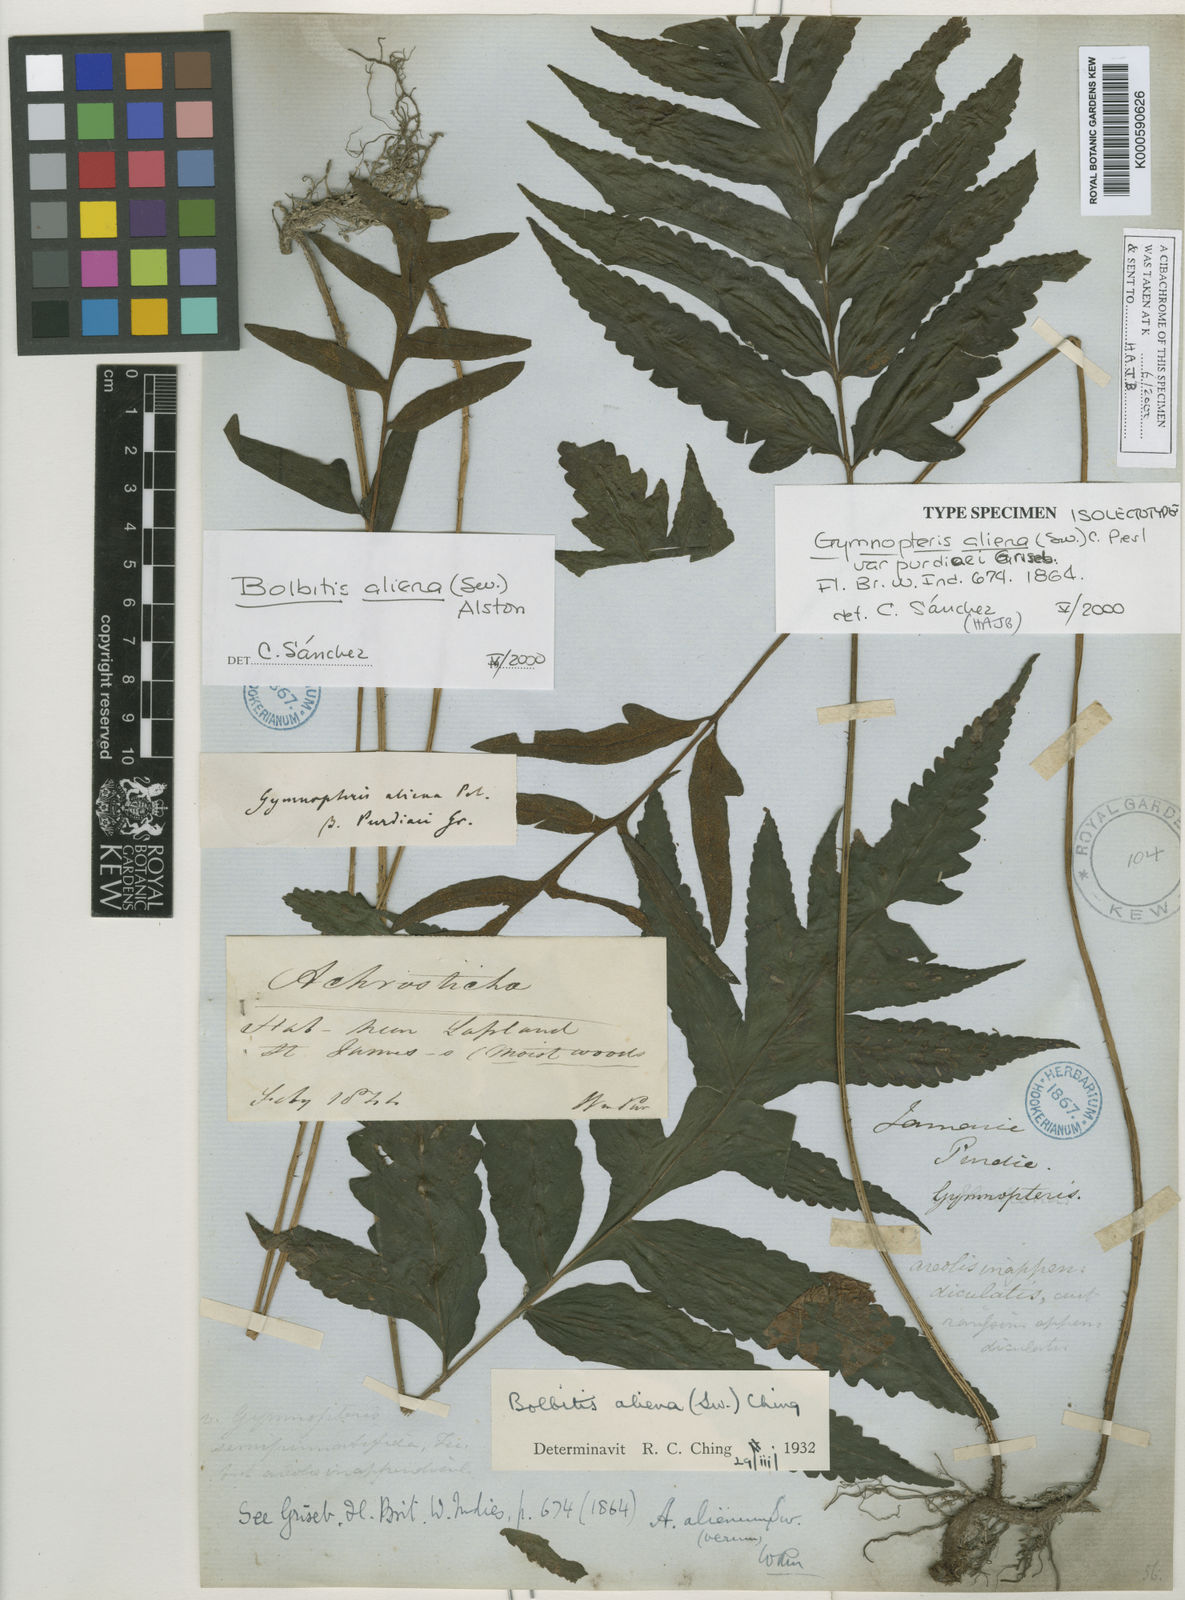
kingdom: Plantae
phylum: Tracheophyta
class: Polypodiopsida
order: Polypodiales
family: Dryopteridaceae
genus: Bolbitis
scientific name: Bolbitis aliena
